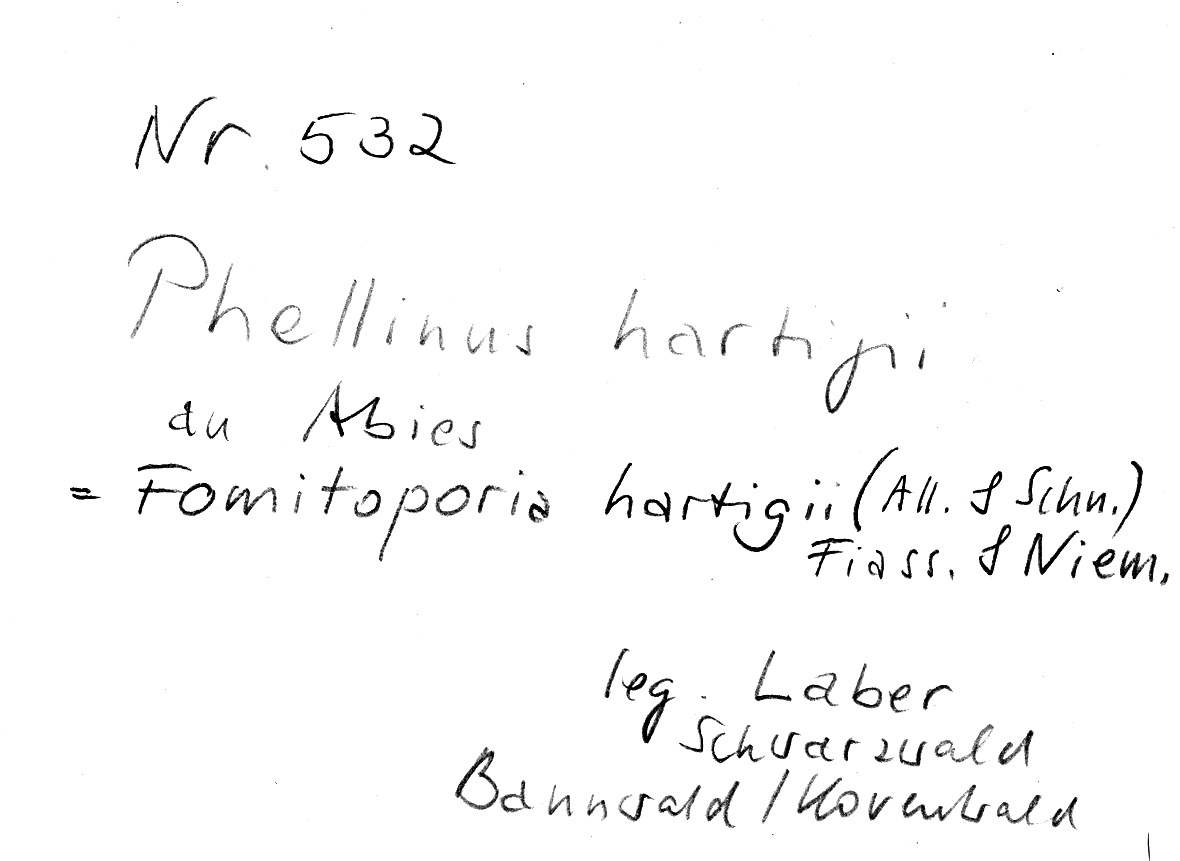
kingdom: Plantae
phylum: Tracheophyta
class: Pinopsida
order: Pinales
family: Pinaceae
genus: Abies
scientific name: Abies
